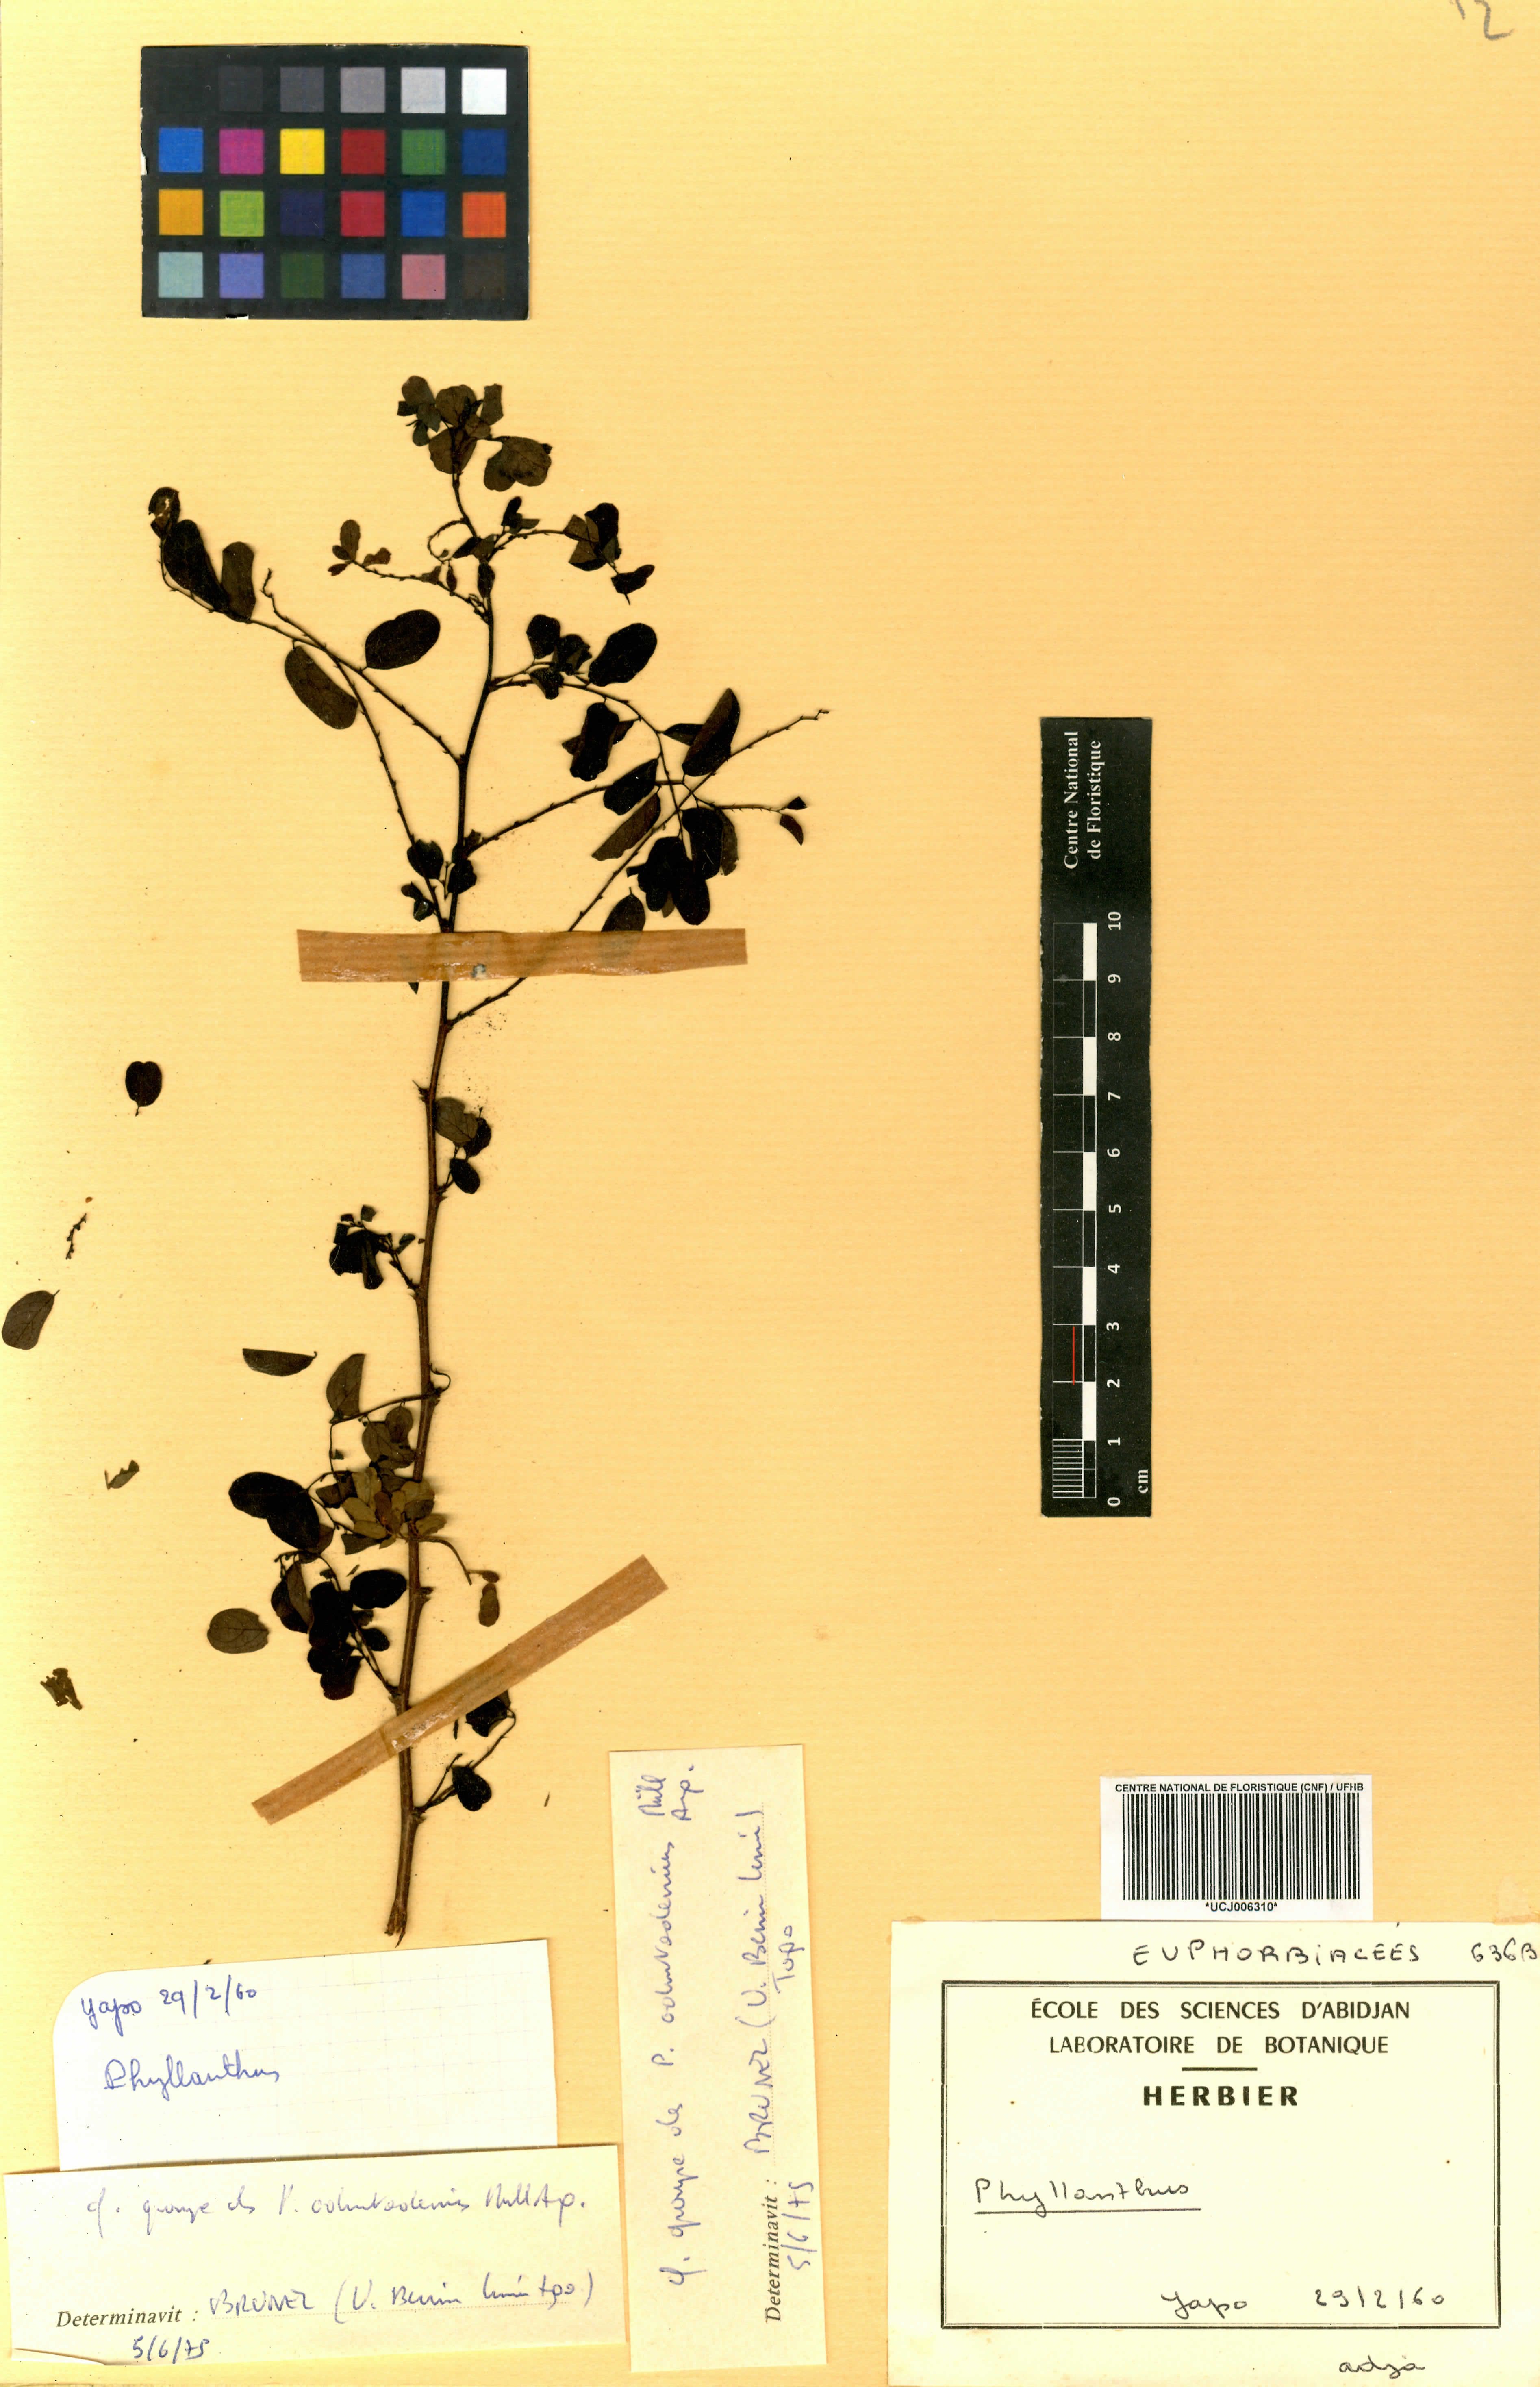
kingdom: Plantae
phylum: Tracheophyta
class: Magnoliopsida
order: Malpighiales
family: Euphorbiaceae
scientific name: Euphorbiaceae
